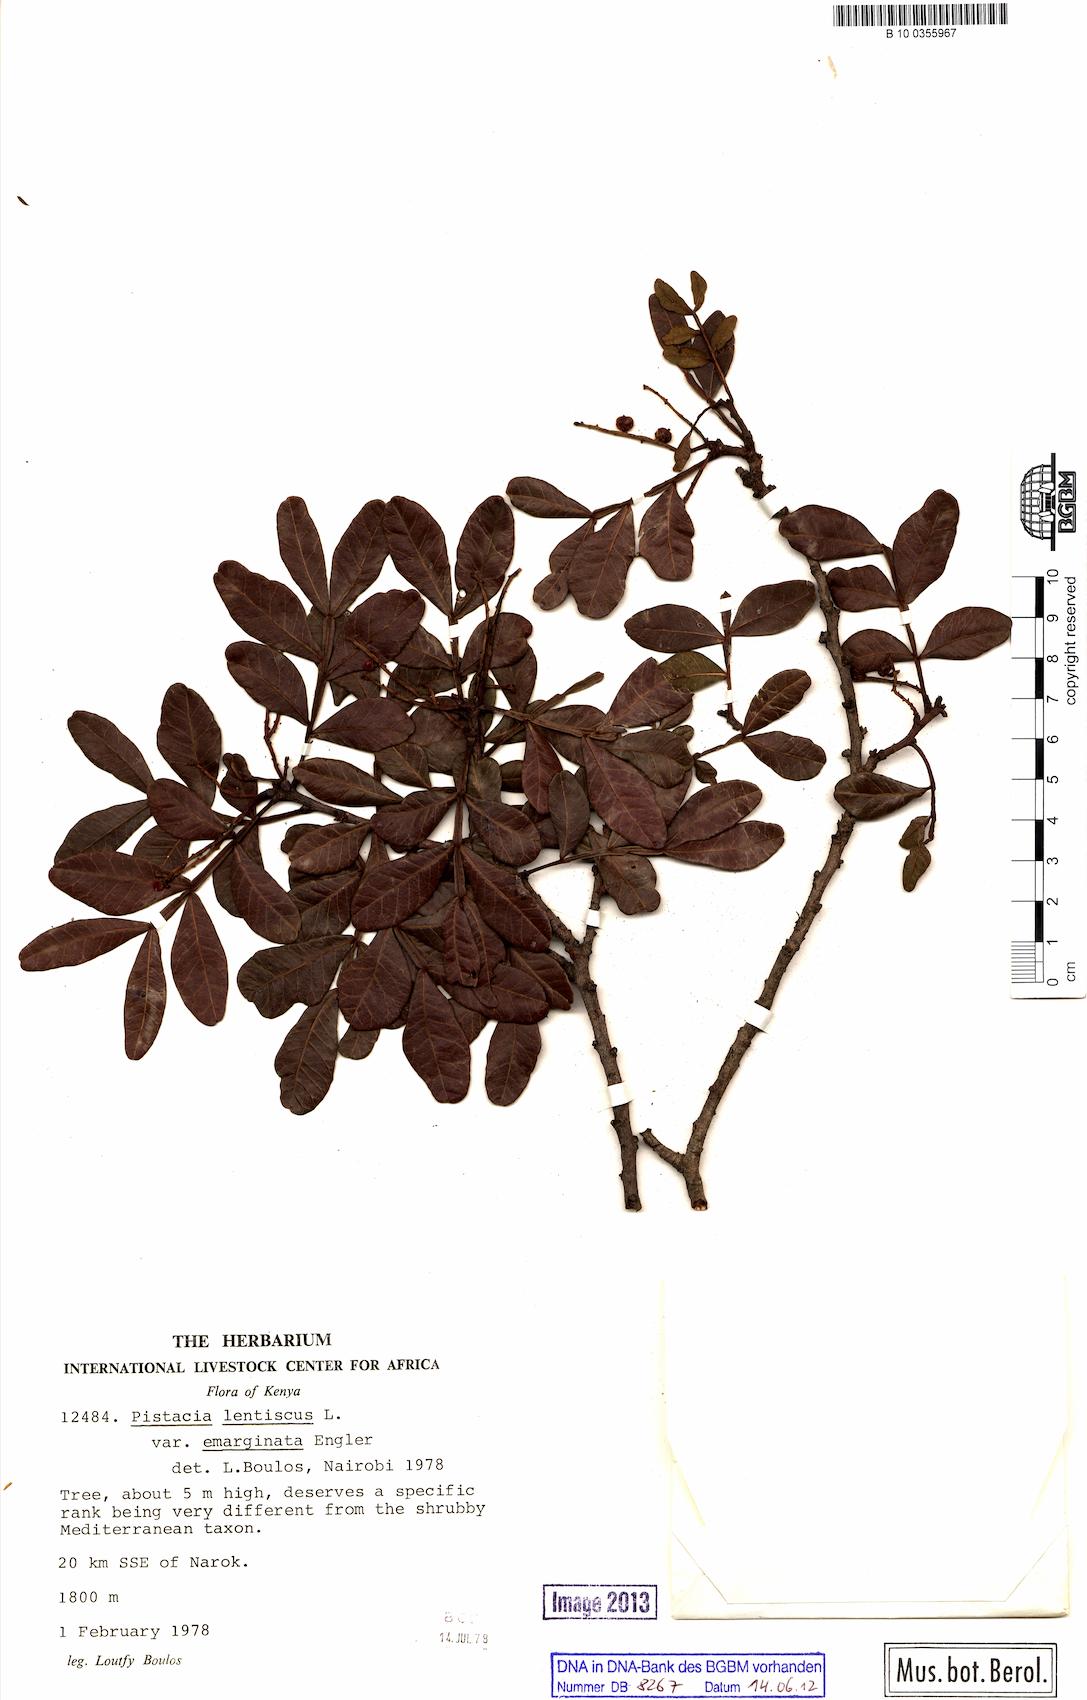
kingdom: Plantae
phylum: Tracheophyta
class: Magnoliopsida
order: Sapindales
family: Anacardiaceae
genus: Pistacia
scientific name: Pistacia lentiscus
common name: Lentisk
